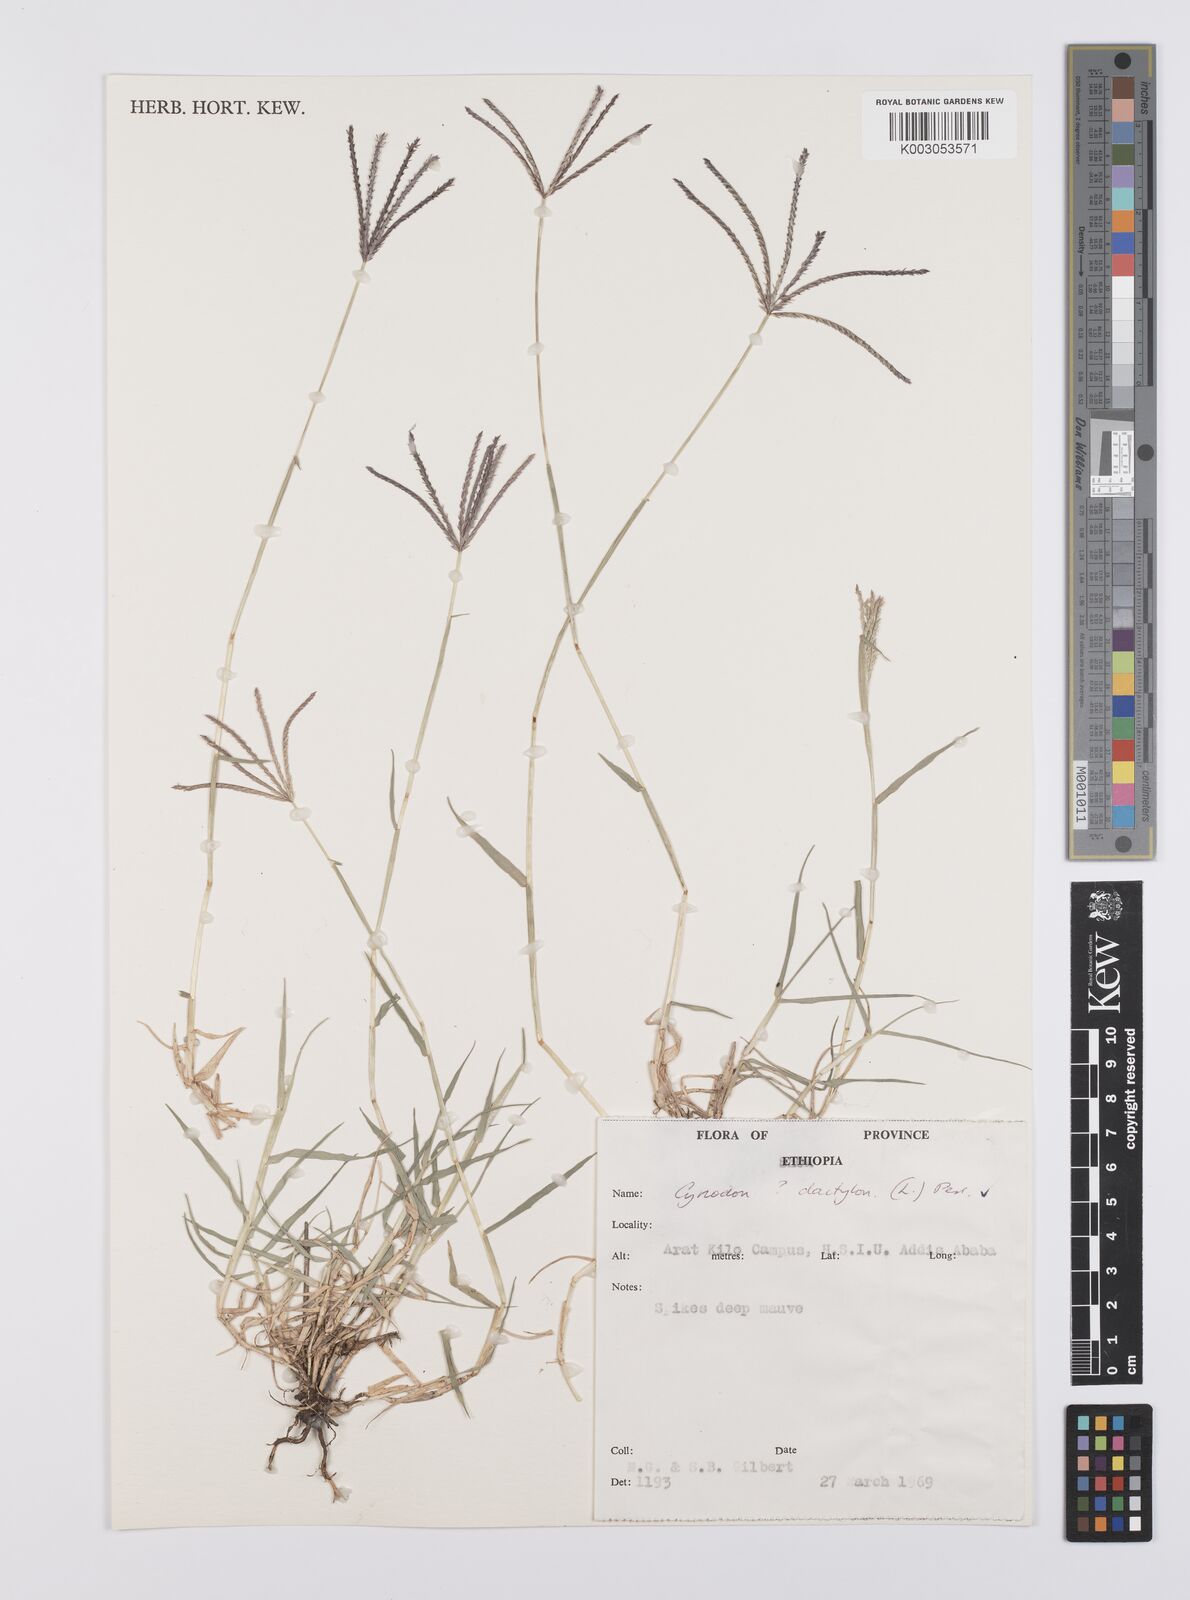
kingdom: Plantae
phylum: Tracheophyta
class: Liliopsida
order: Poales
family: Poaceae
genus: Cynodon
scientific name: Cynodon dactylon
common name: Bermuda grass
